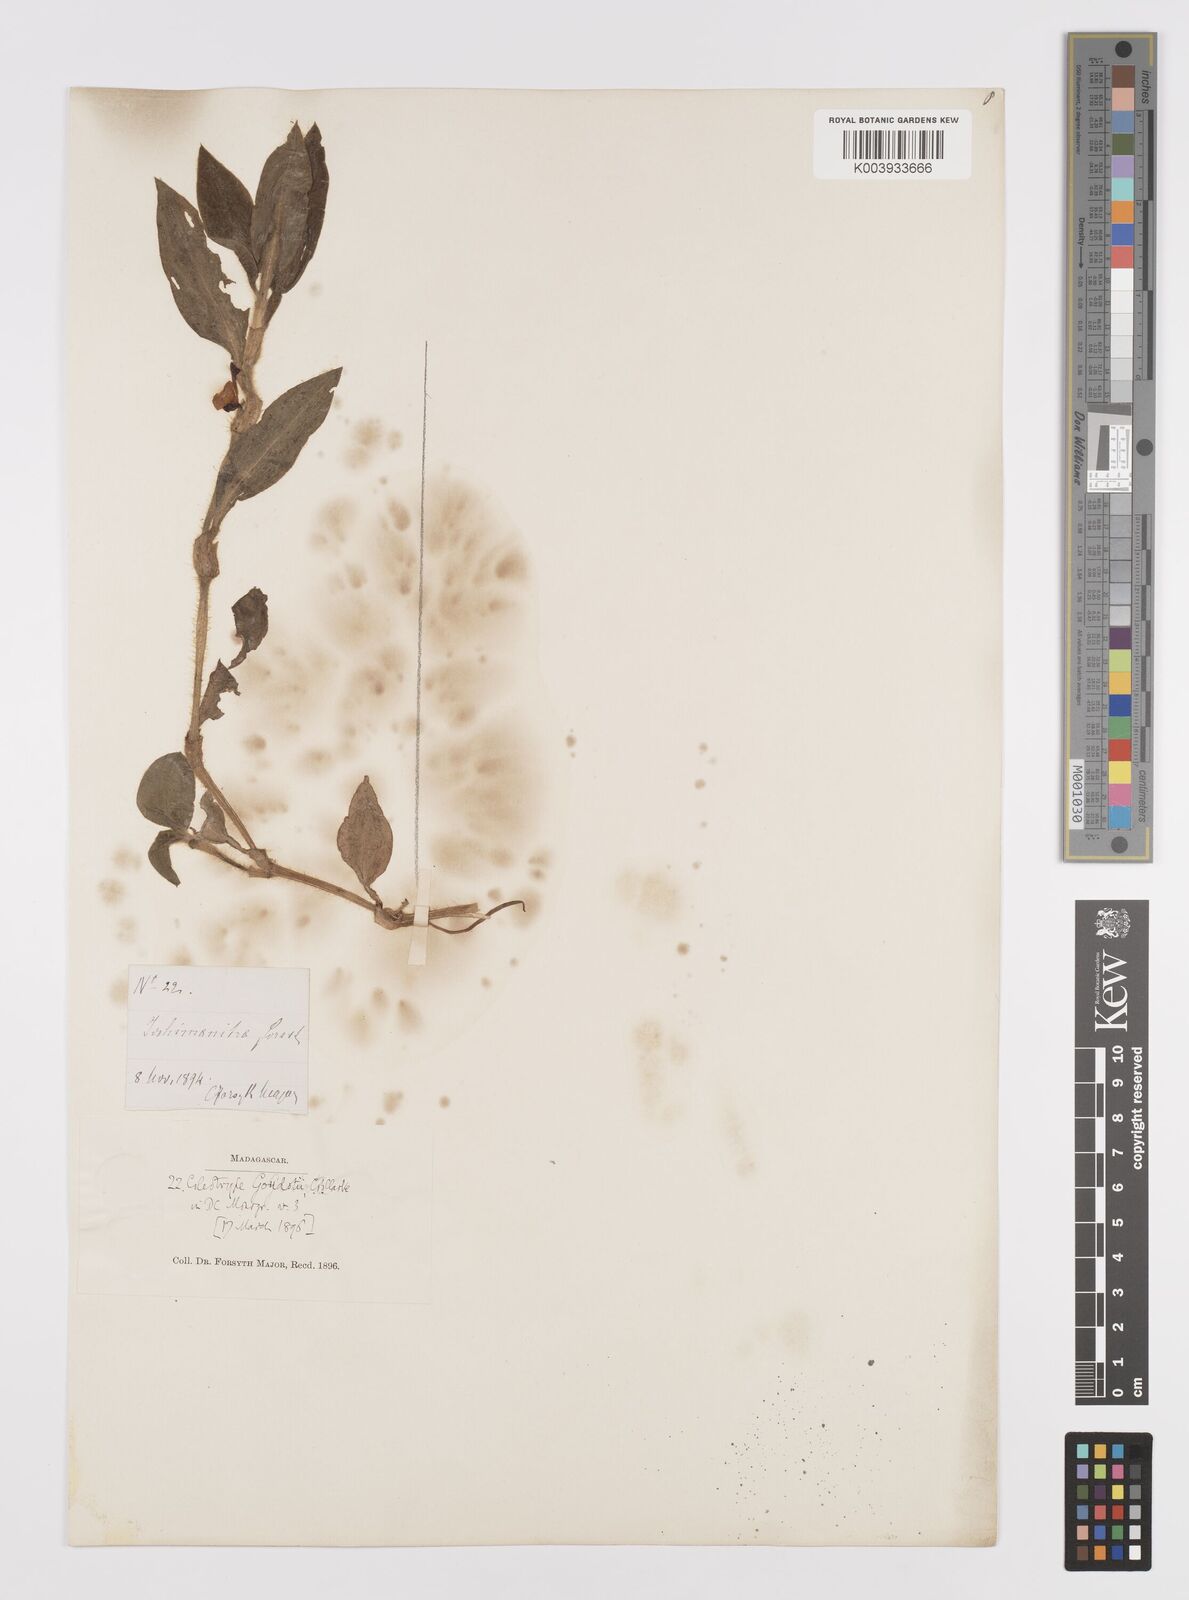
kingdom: Plantae
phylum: Tracheophyta
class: Liliopsida
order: Commelinales
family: Commelinaceae
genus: Coleotrype
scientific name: Coleotrype goudotii
